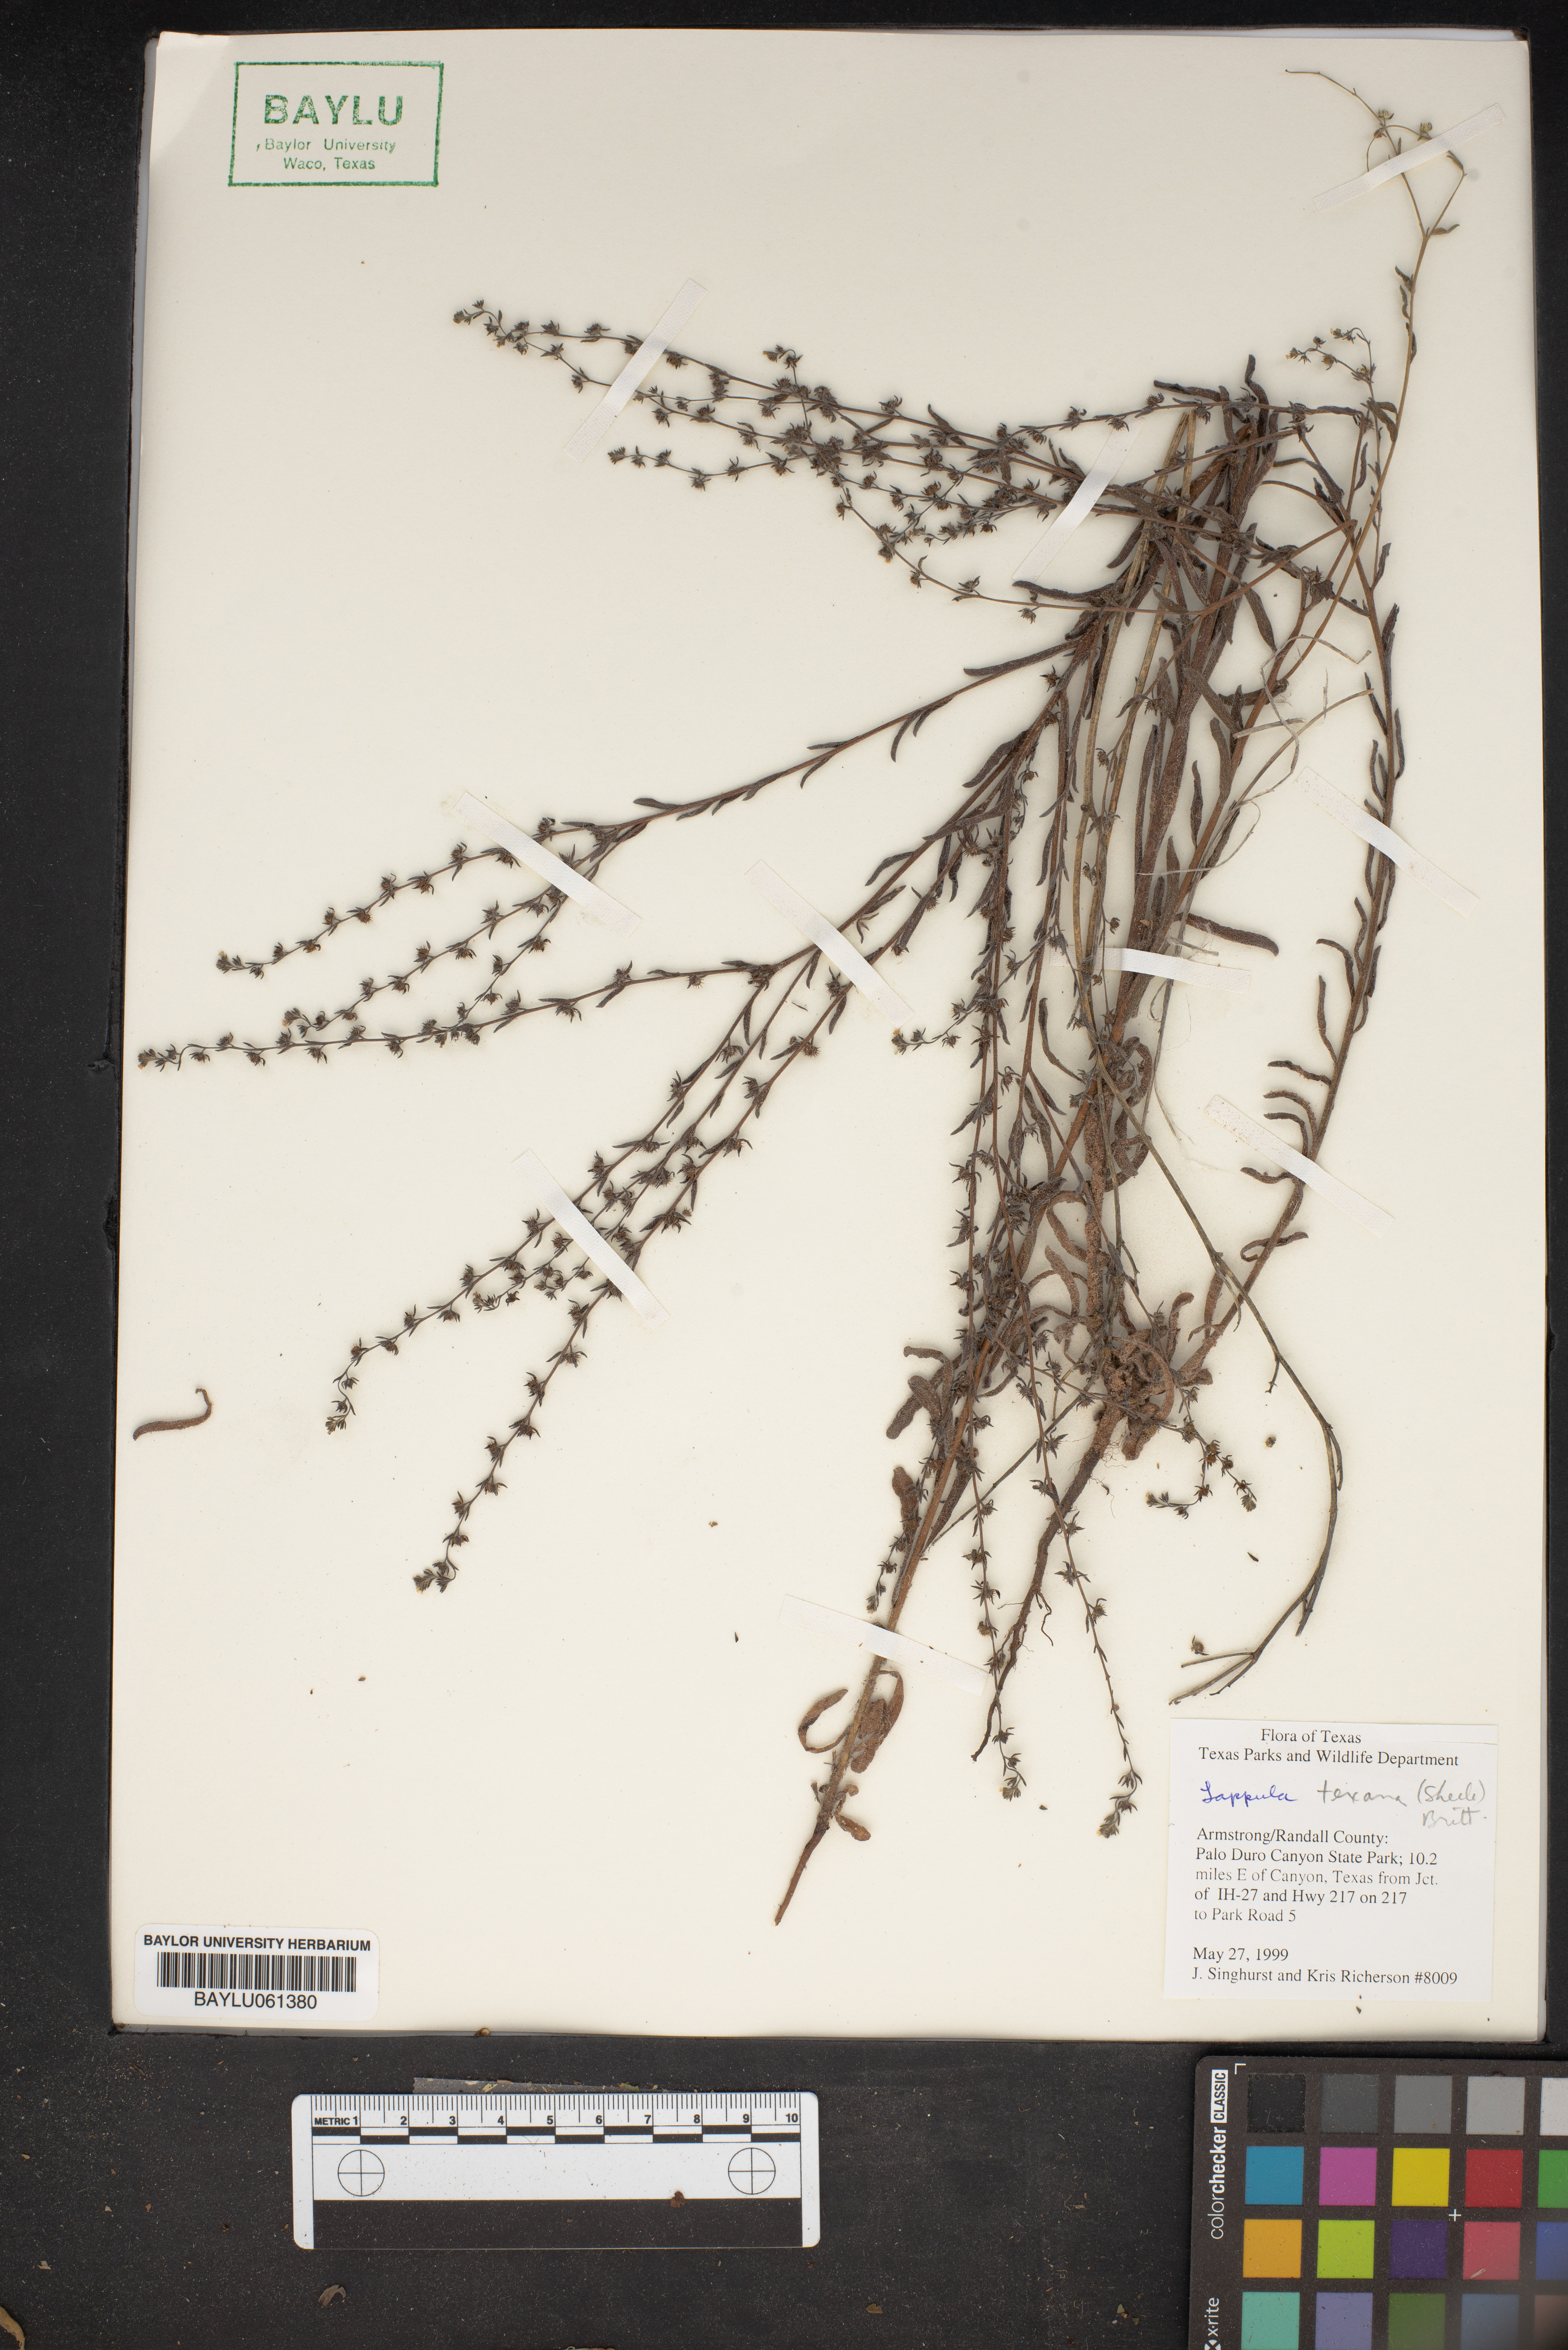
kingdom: Plantae
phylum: Tracheophyta
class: Magnoliopsida
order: Boraginales
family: Boraginaceae
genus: Lappula
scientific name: Lappula occidentalis
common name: Western stickseed
